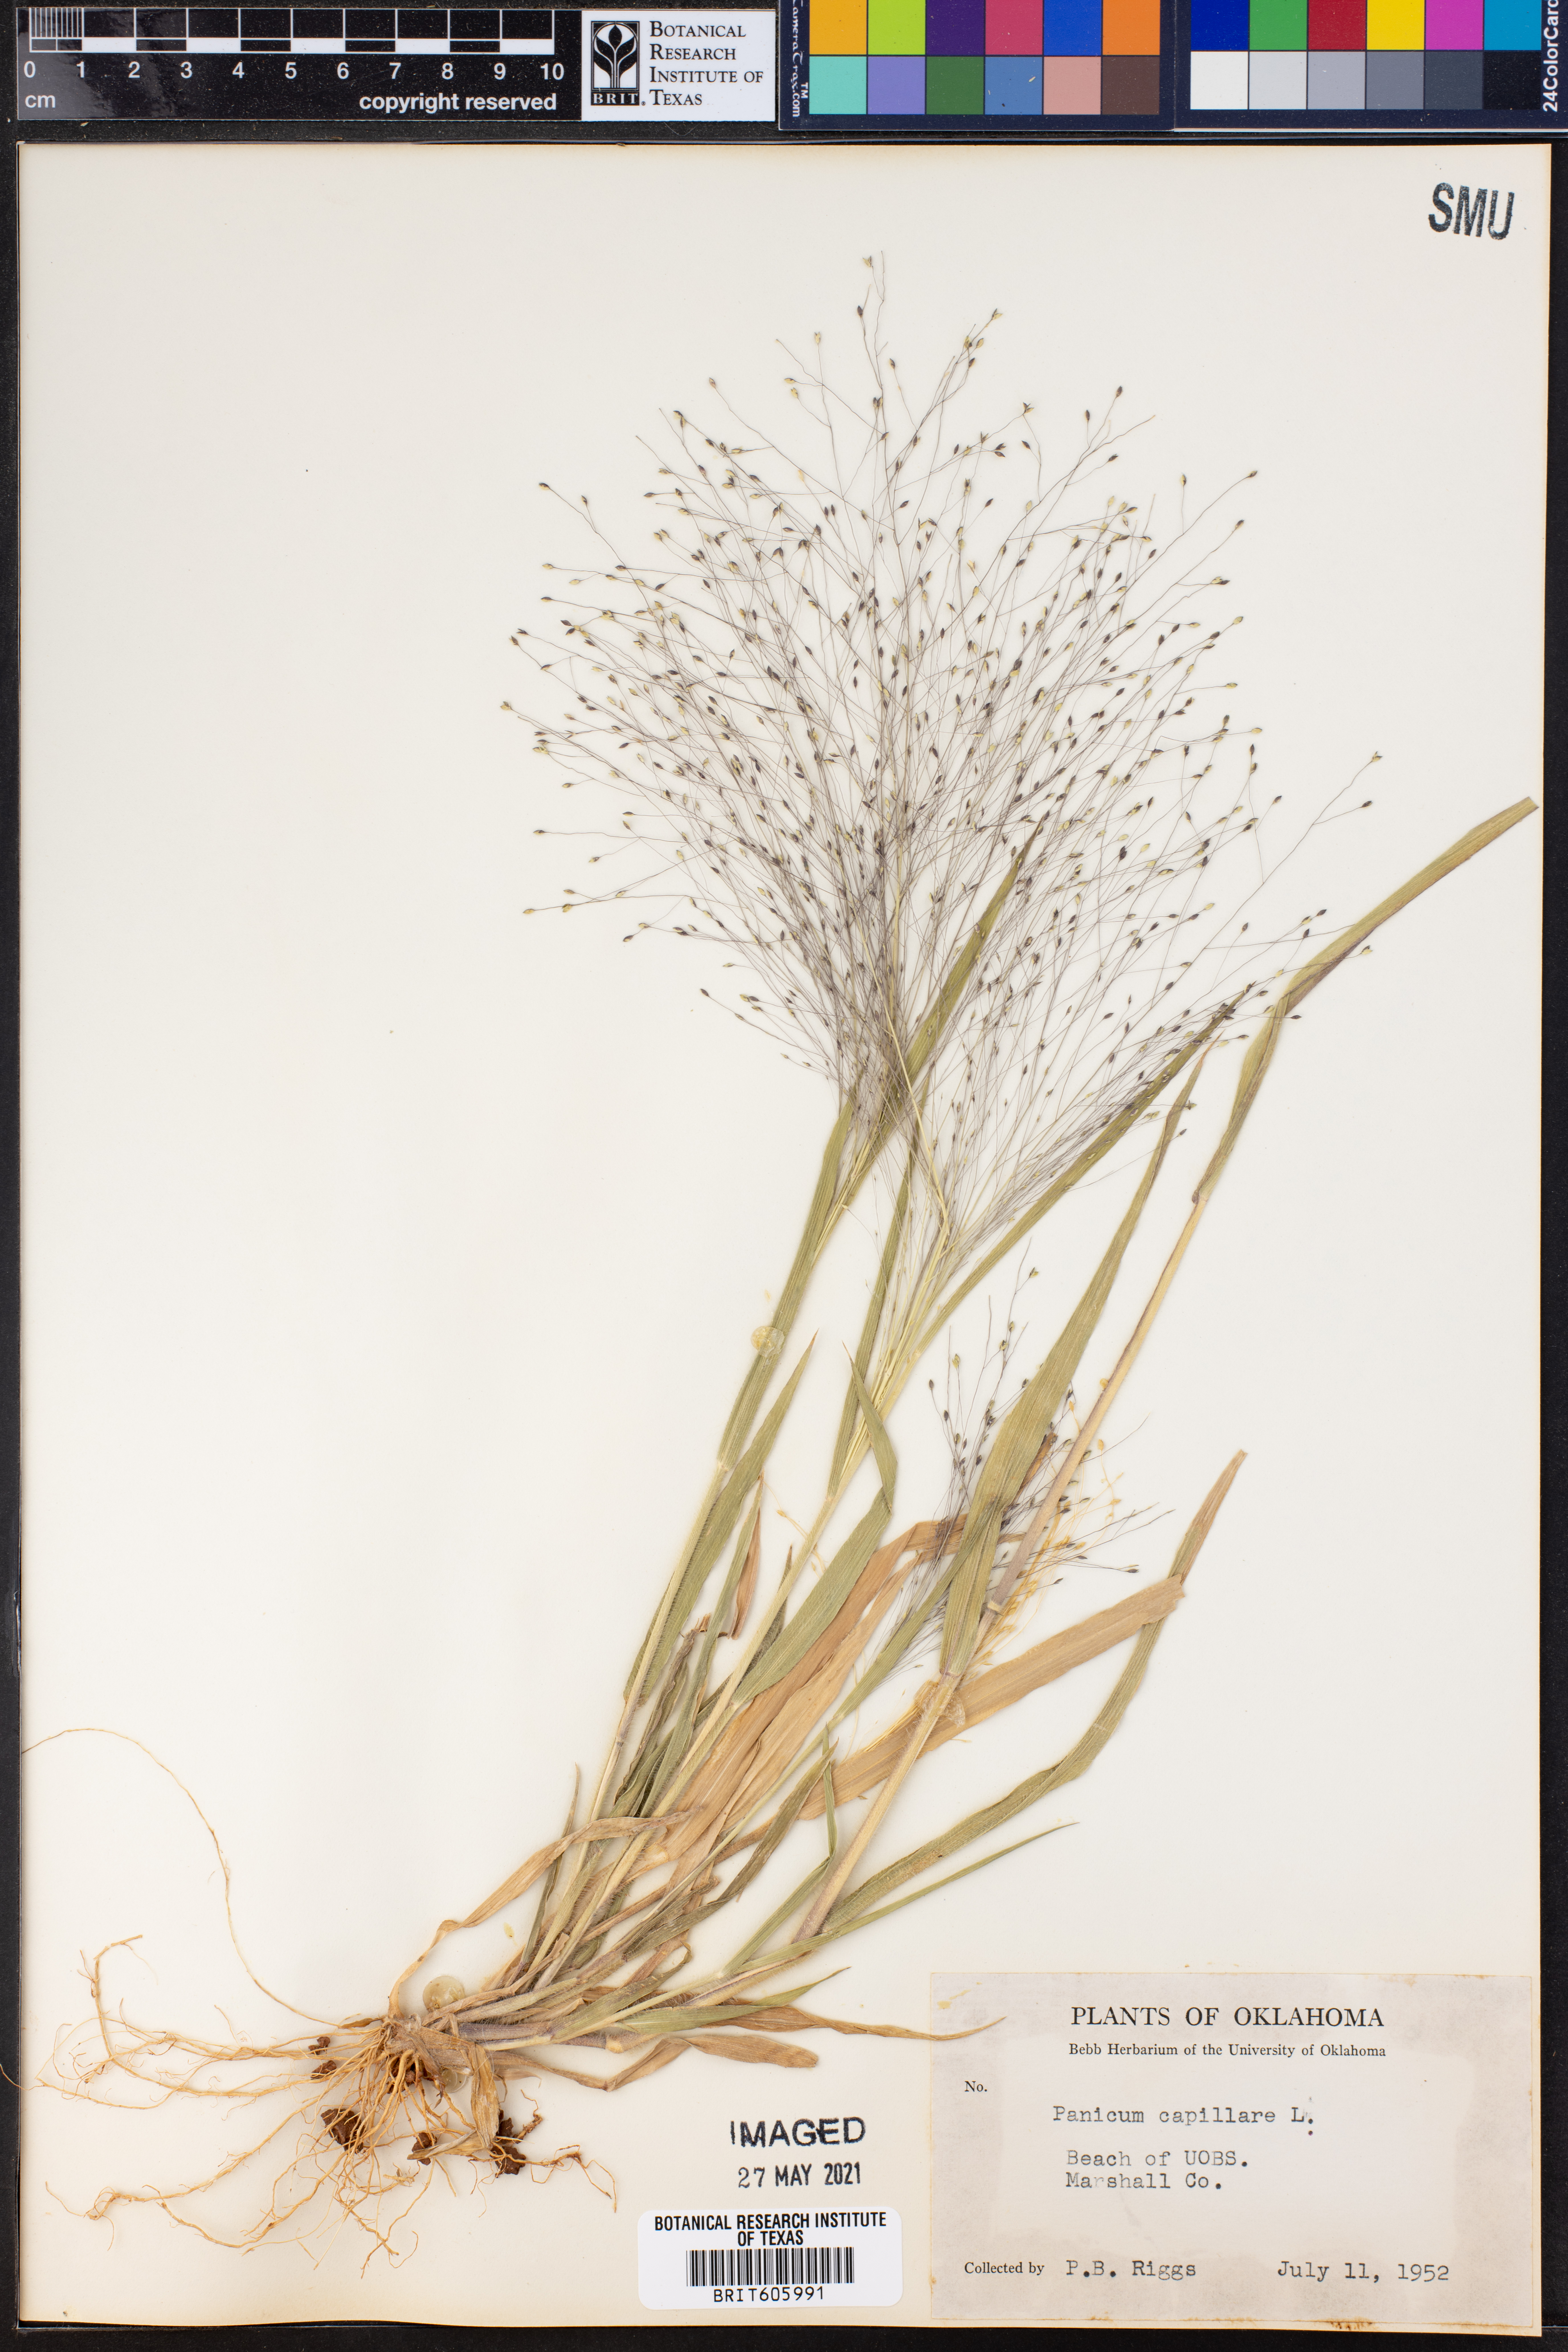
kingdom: Plantae
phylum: Tracheophyta
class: Liliopsida
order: Poales
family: Poaceae
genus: Panicum
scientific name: Panicum capillare
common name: Witch-grass
